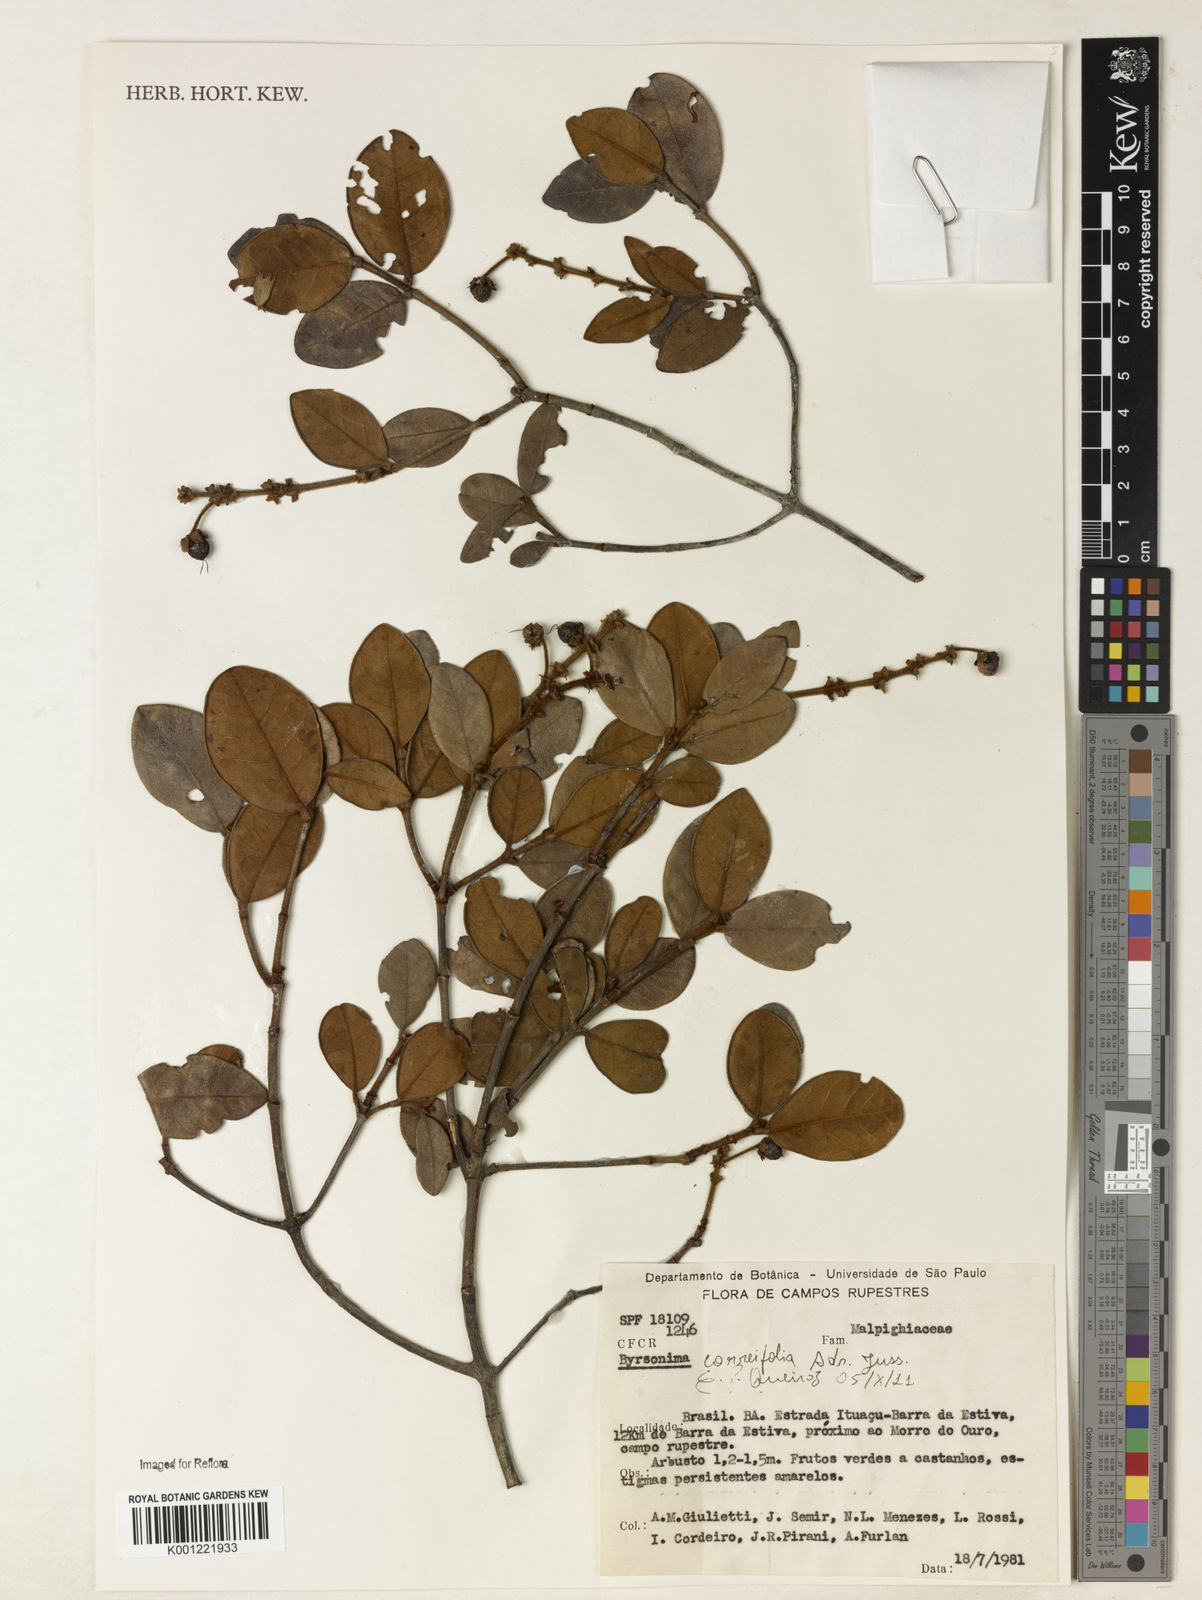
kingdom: Plantae
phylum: Tracheophyta
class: Magnoliopsida
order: Malpighiales
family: Malpighiaceae
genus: Byrsonima
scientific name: Byrsonima correifolia
